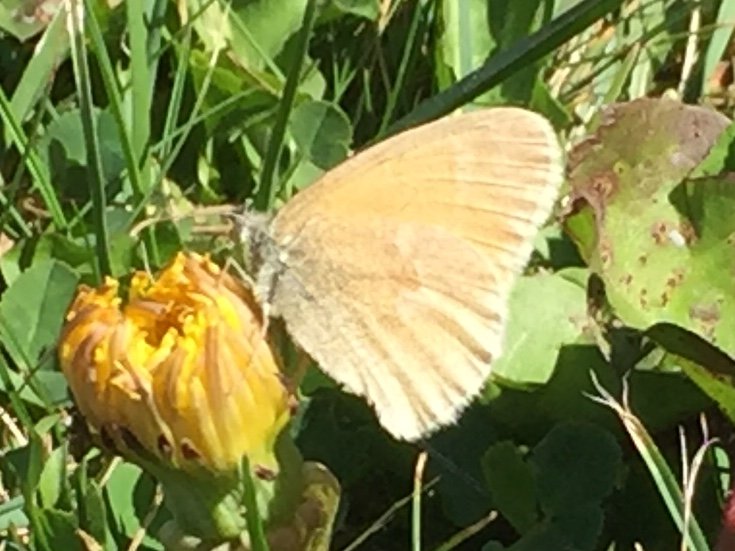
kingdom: Animalia
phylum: Arthropoda
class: Insecta
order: Lepidoptera
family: Nymphalidae
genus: Coenonympha
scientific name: Coenonympha tullia
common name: Large Heath
